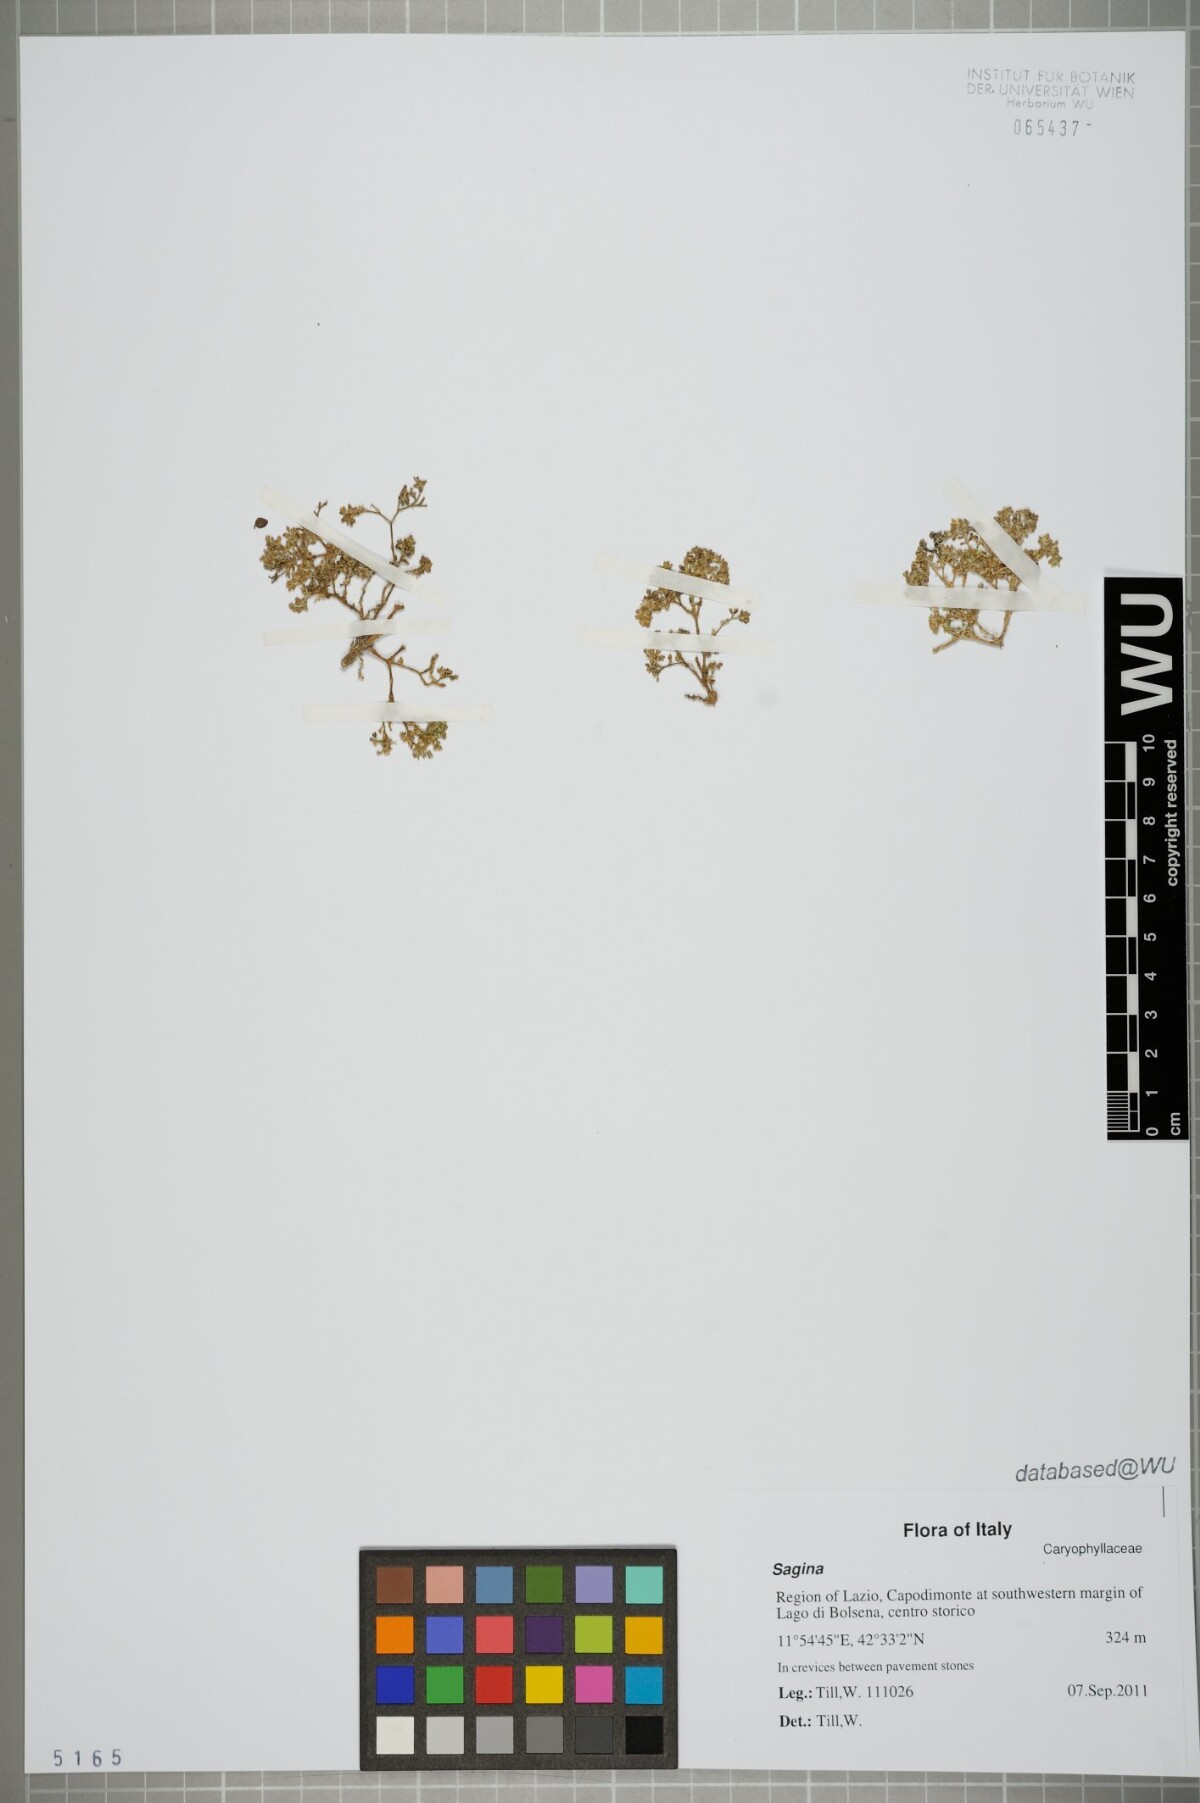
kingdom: Plantae
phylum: Tracheophyta
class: Magnoliopsida
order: Caryophyllales
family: Caryophyllaceae
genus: Sagina
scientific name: Sagina
